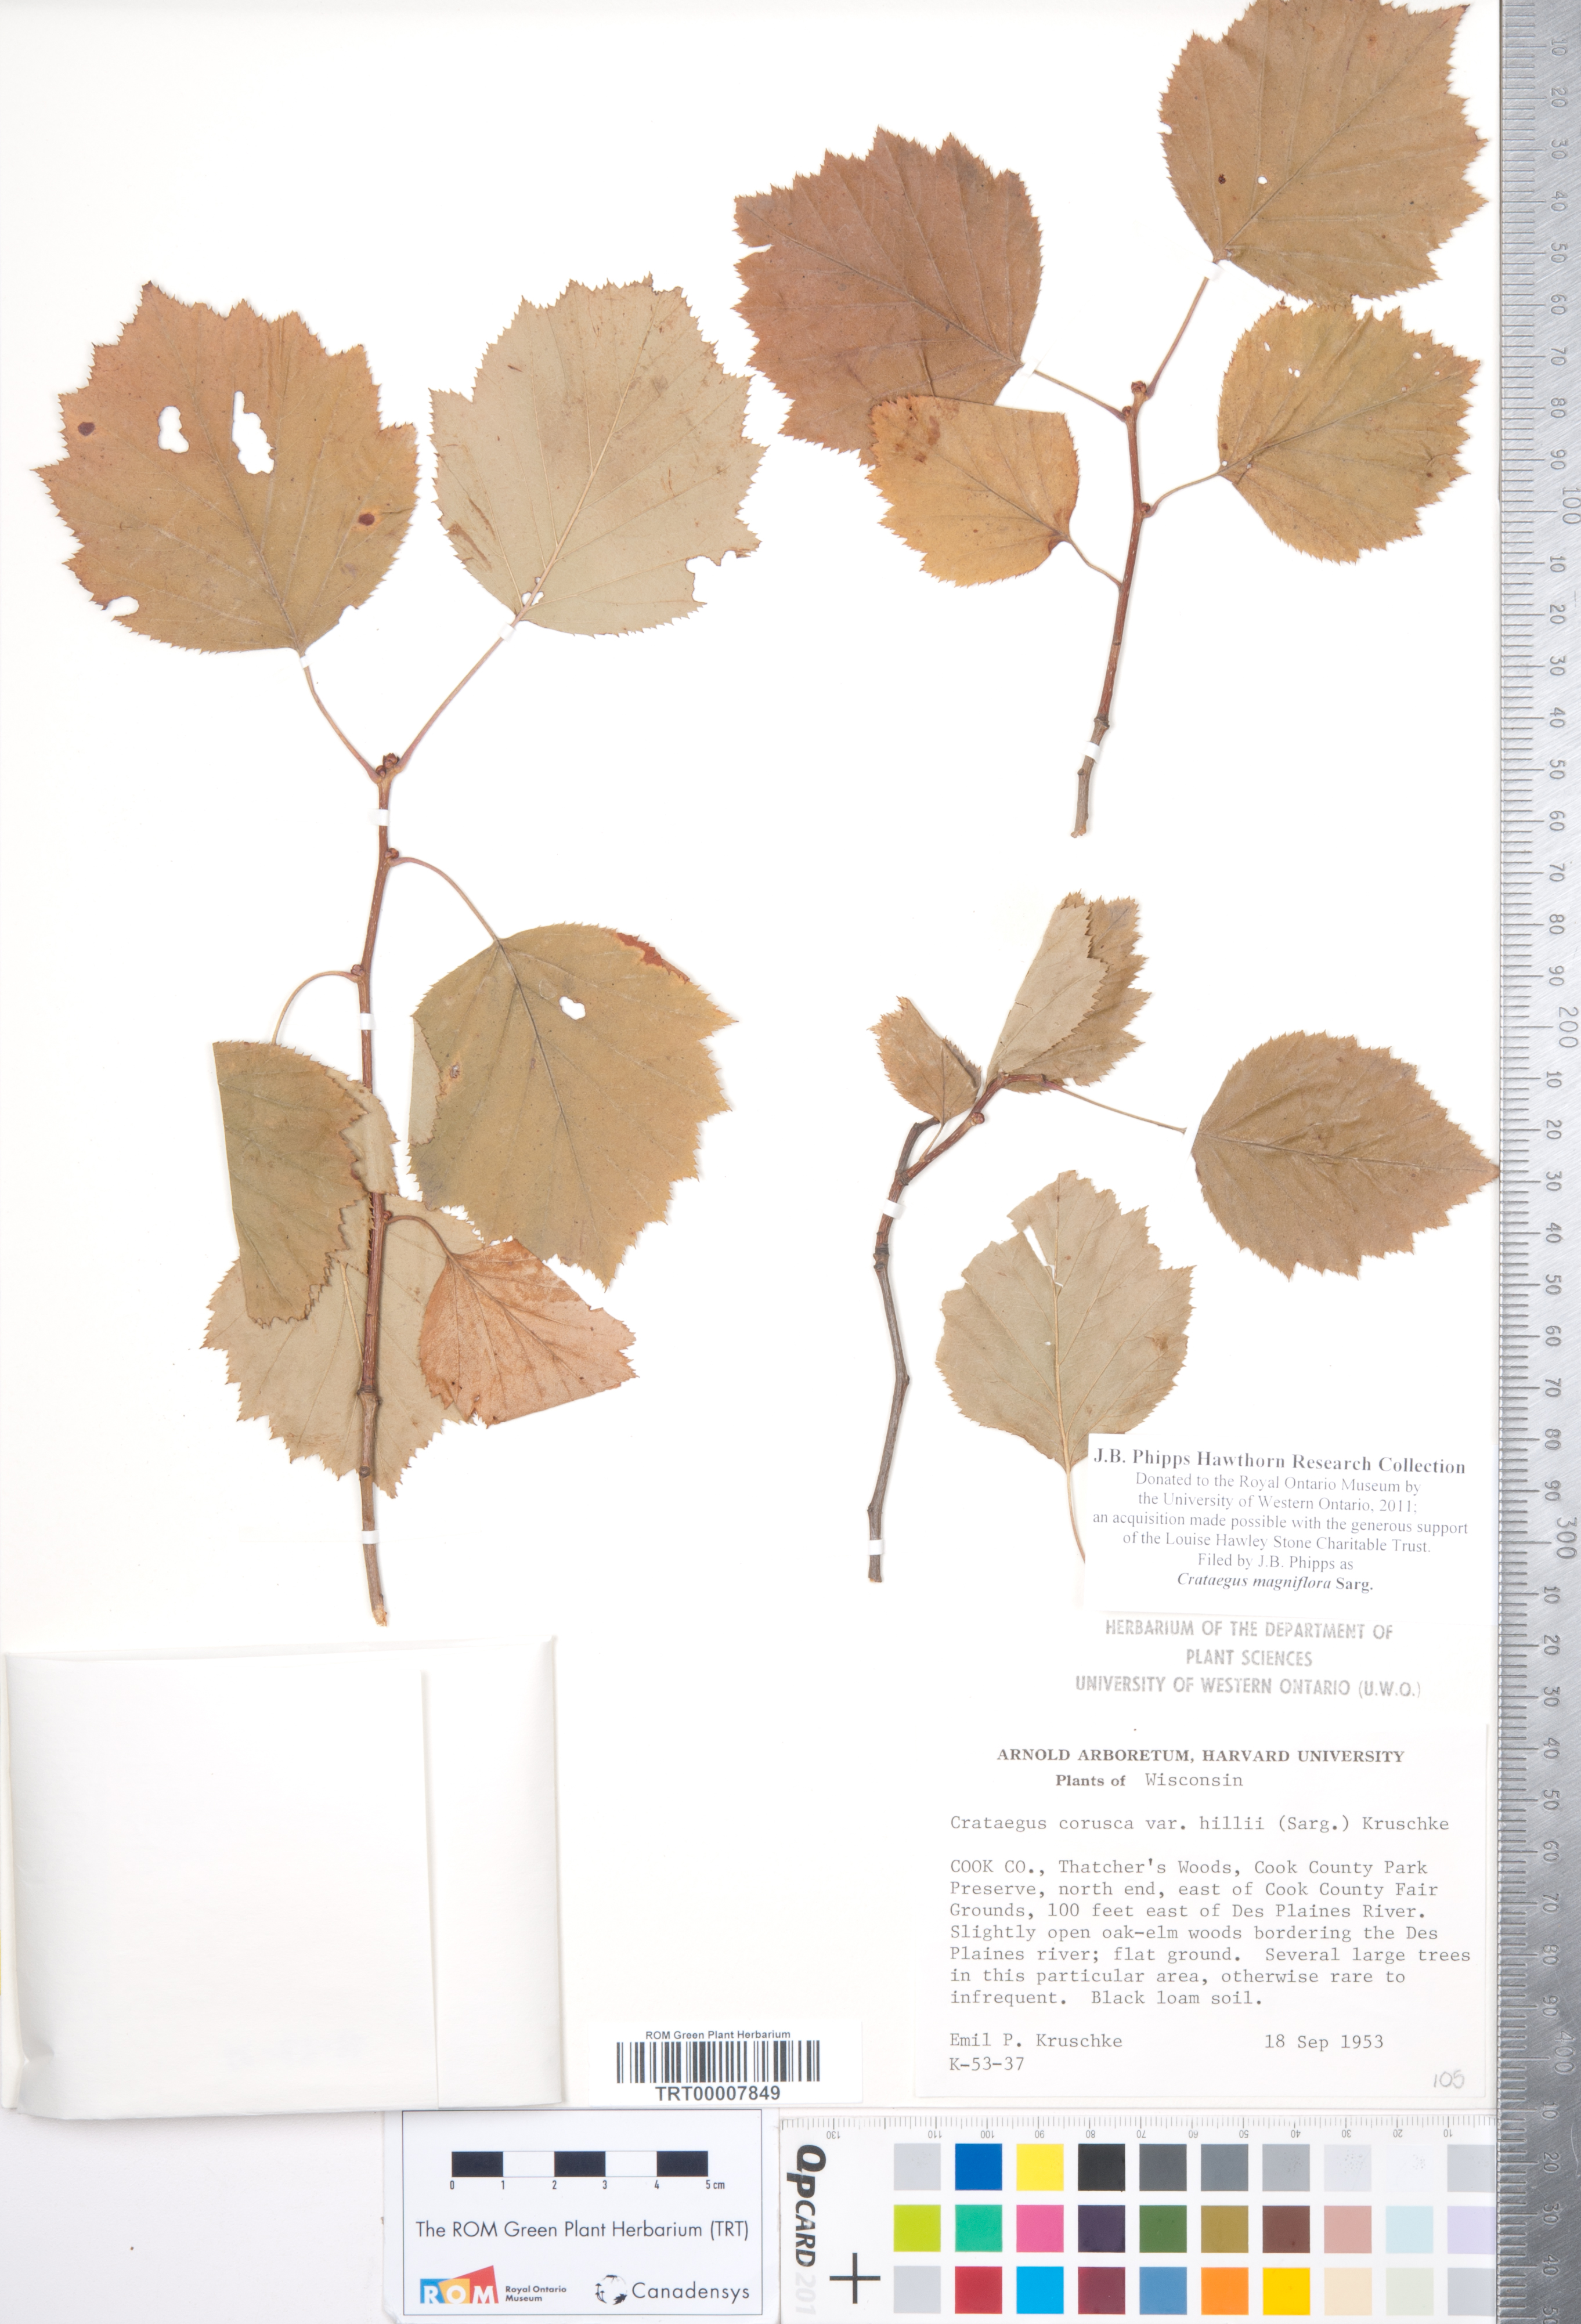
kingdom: Plantae
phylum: Tracheophyta
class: Magnoliopsida
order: Rosales
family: Rosaceae
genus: Crataegus
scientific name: Crataegus magniflora
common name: Gleaming hawthorn
